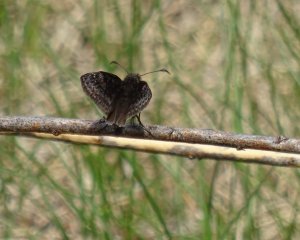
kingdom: Animalia
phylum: Arthropoda
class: Insecta
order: Lepidoptera
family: Hesperiidae
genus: Erynnis
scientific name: Erynnis
